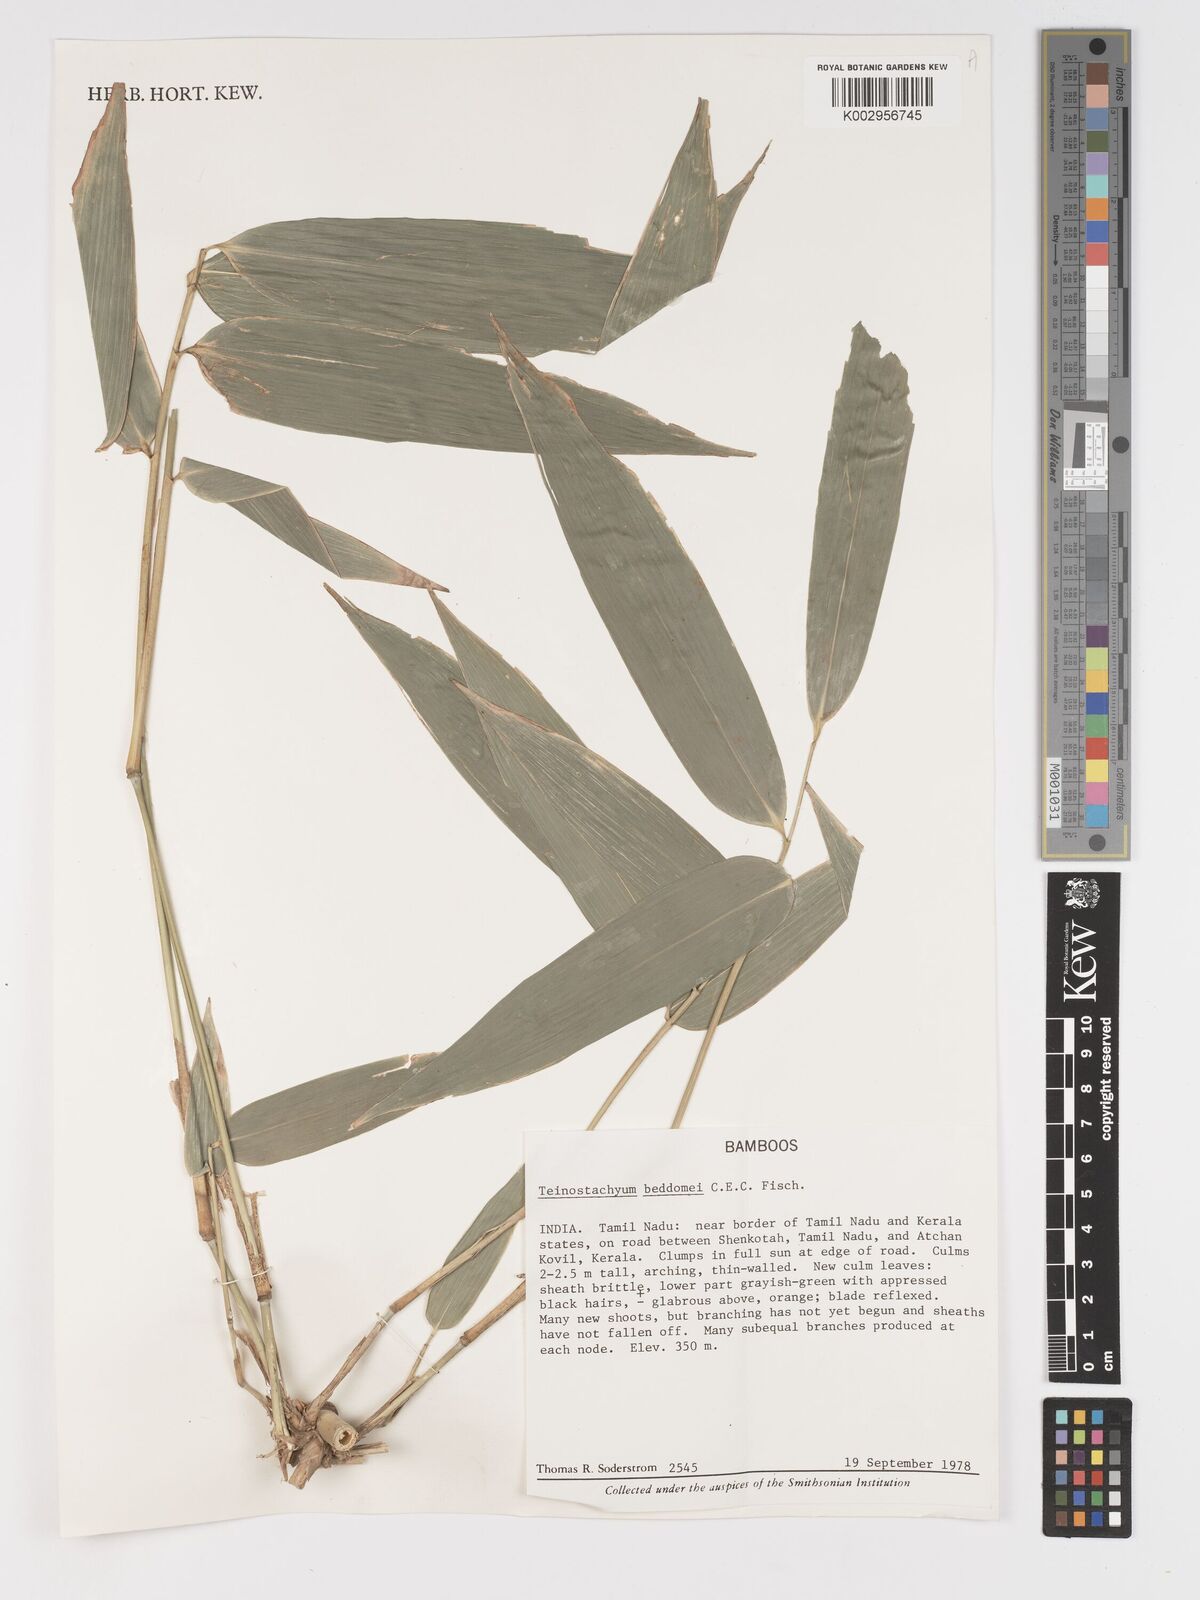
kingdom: Plantae
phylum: Tracheophyta
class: Liliopsida
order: Poales
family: Poaceae
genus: Schizostachyum
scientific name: Schizostachyum
